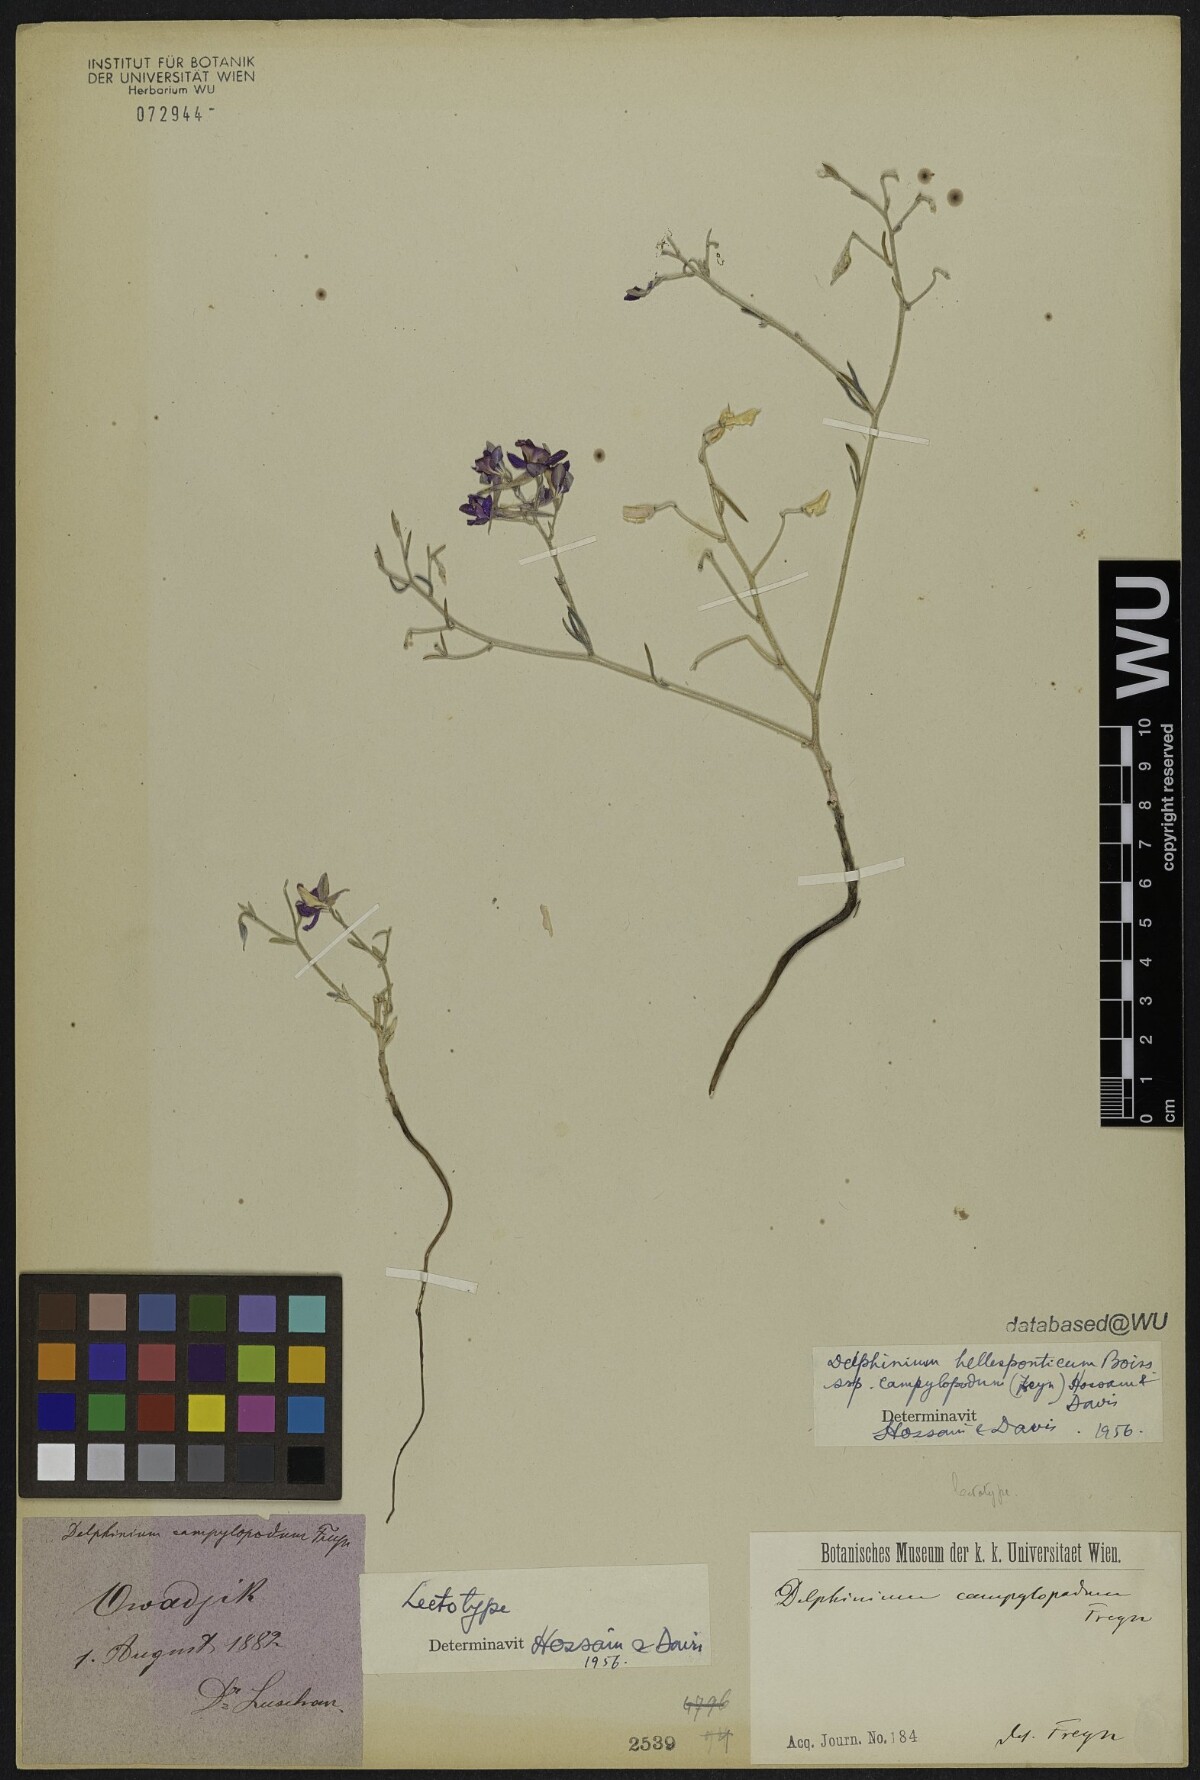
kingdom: Plantae
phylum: Tracheophyta
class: Magnoliopsida
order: Ranunculales
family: Ranunculaceae
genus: Delphinium
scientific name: Delphinium hellesponticum
